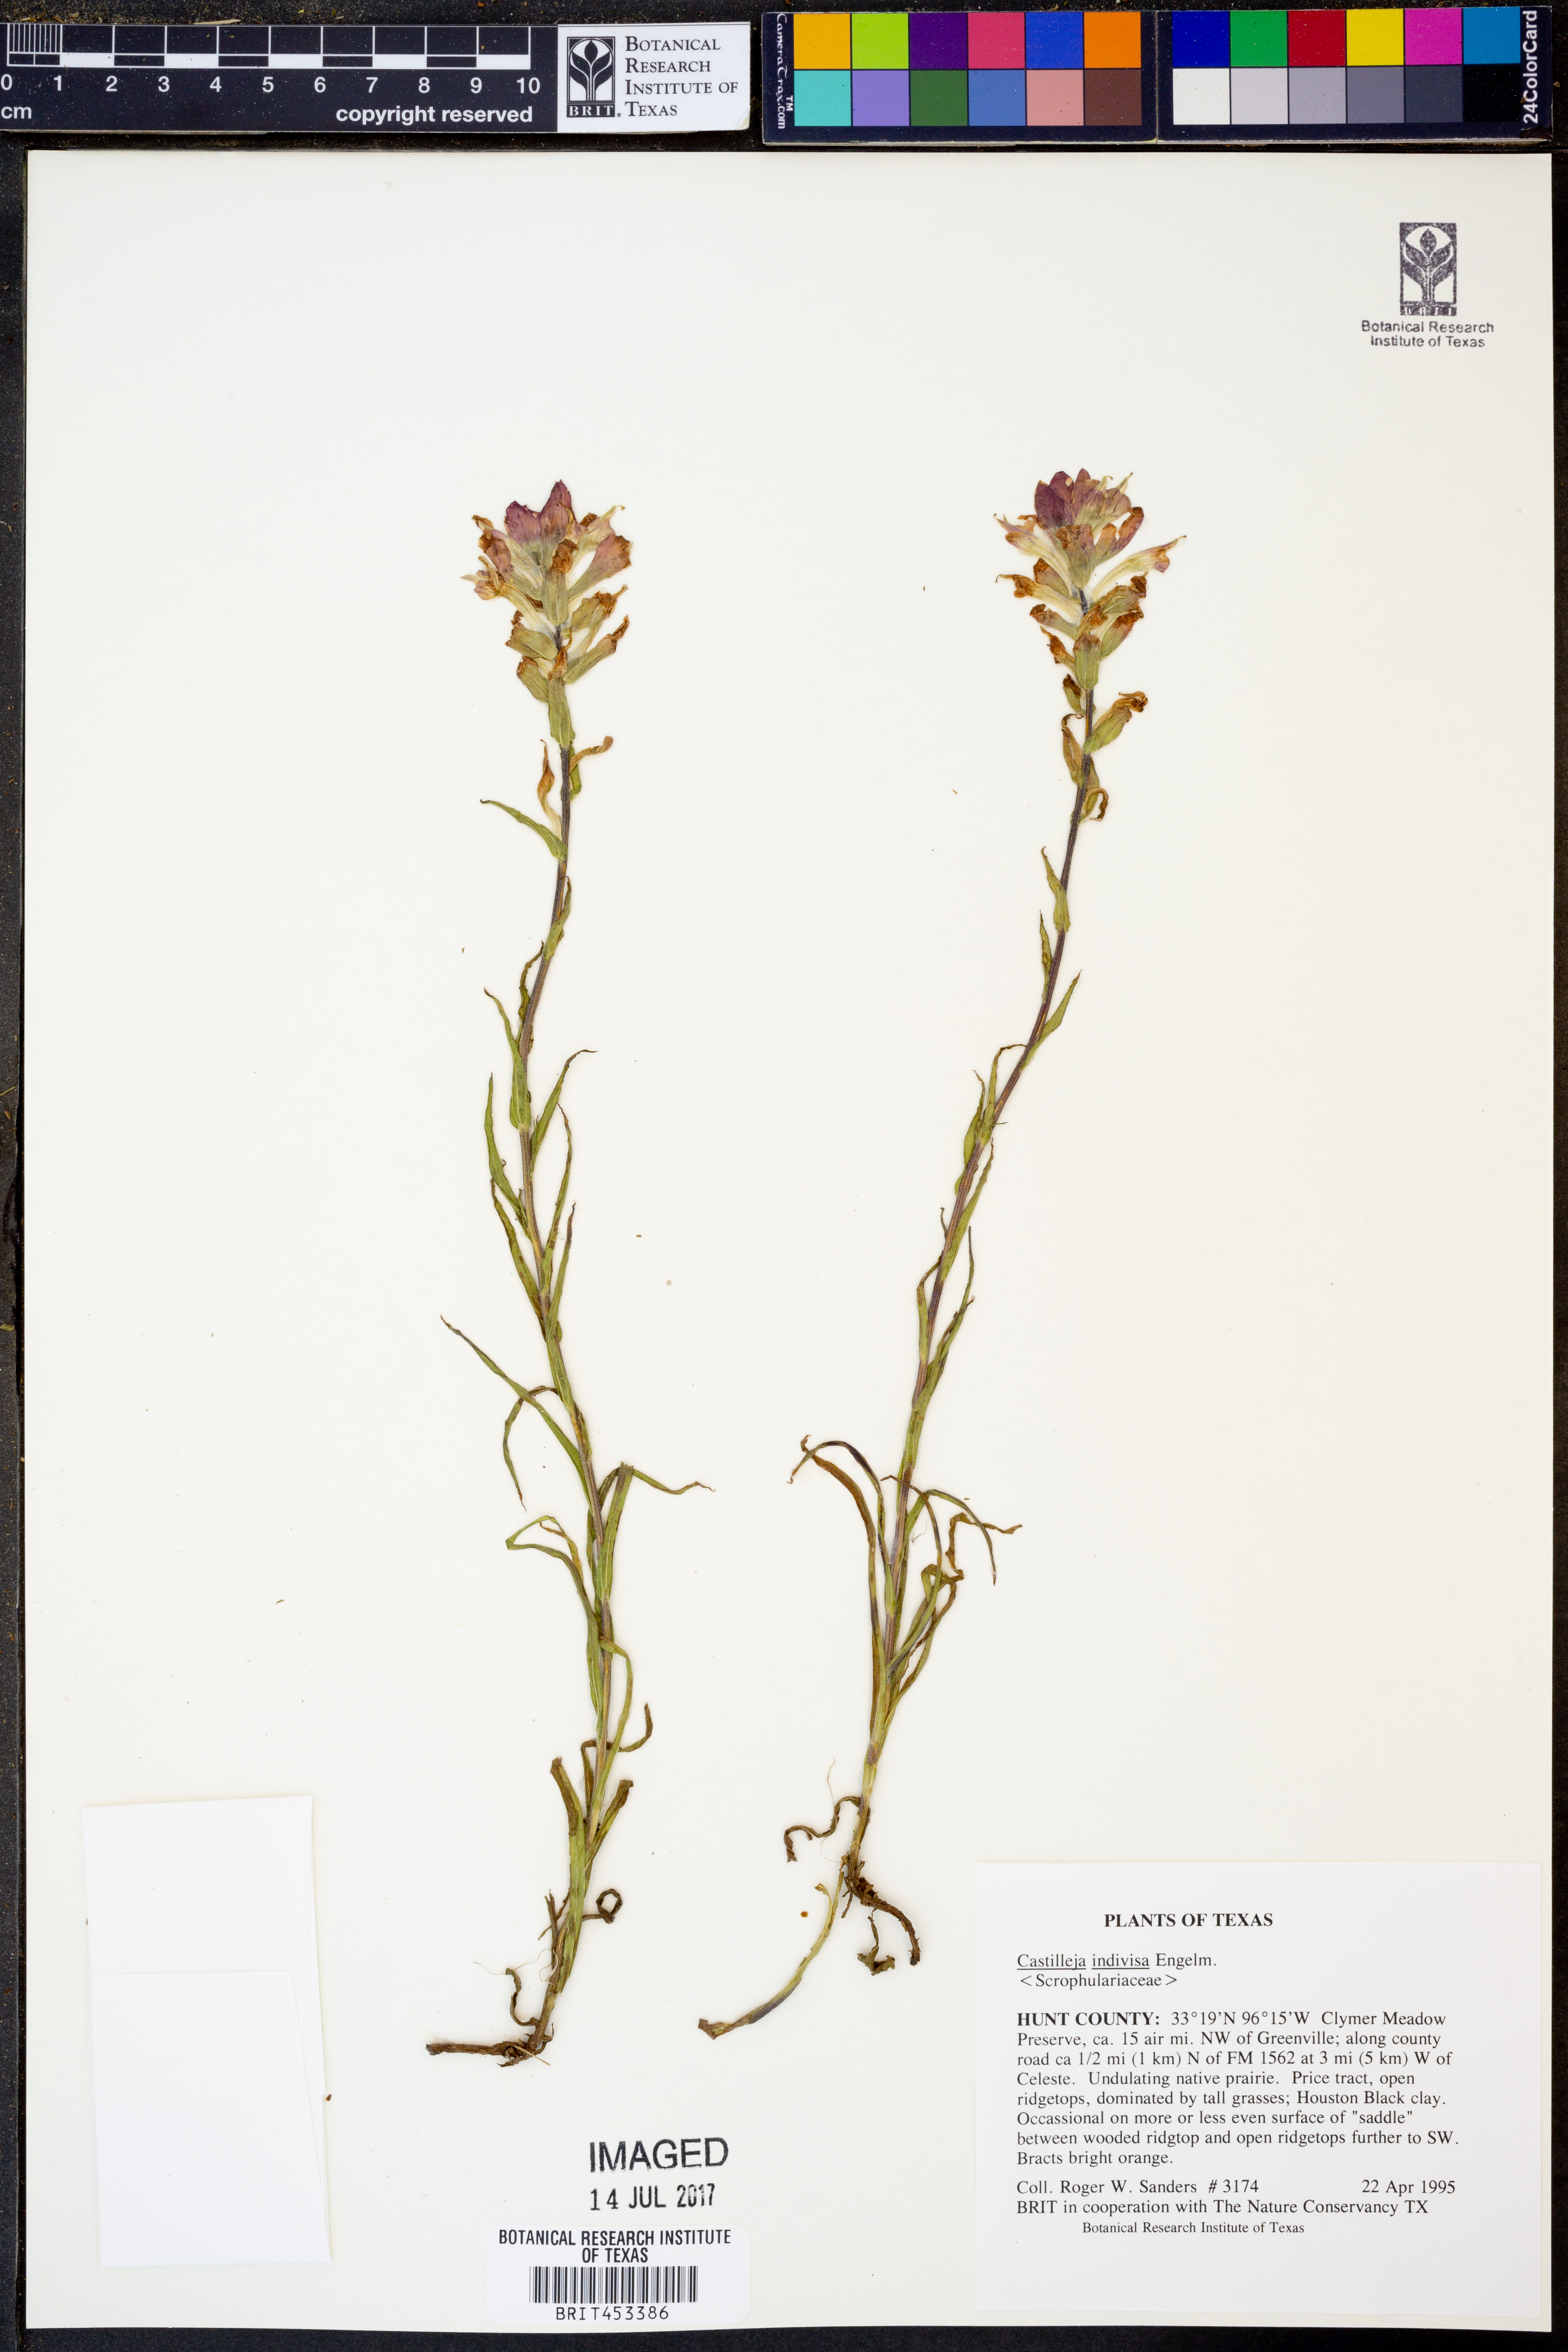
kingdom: Plantae
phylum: Tracheophyta
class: Magnoliopsida
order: Lamiales
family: Orobanchaceae
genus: Castilleja
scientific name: Castilleja indivisa
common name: Texas paintbrush
